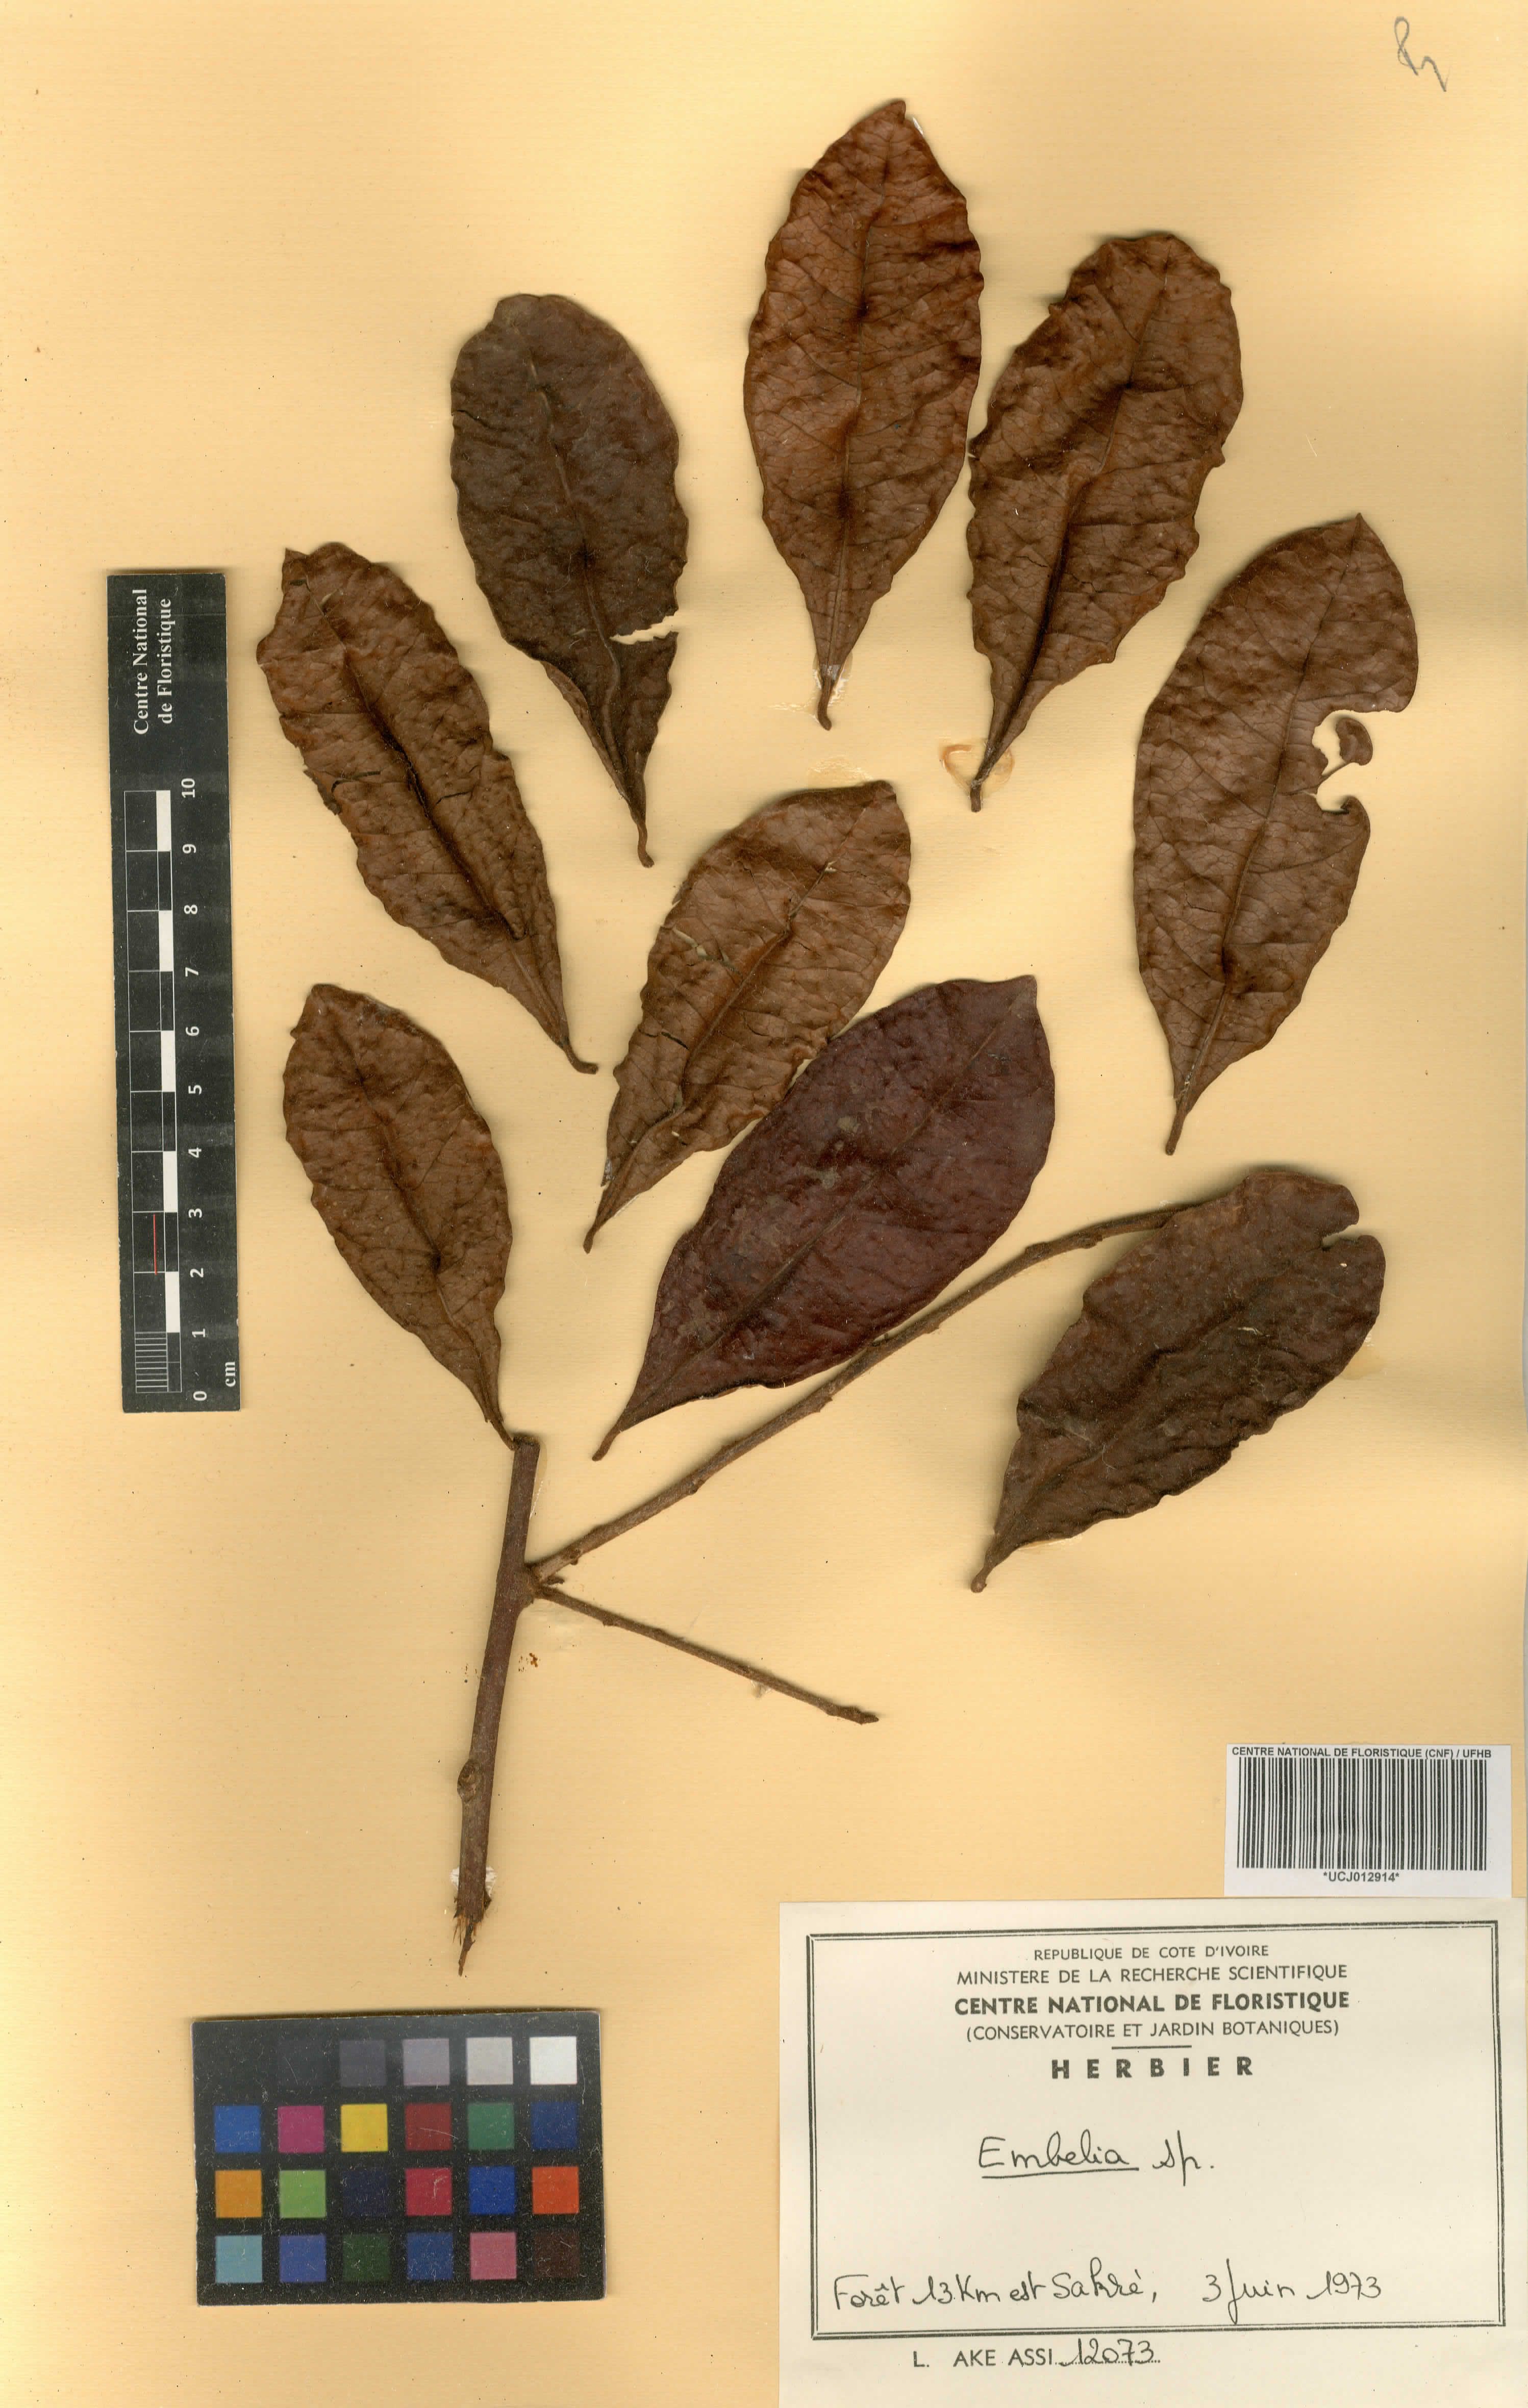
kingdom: Plantae
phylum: Tracheophyta
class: Magnoliopsida
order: Ericales
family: Primulaceae
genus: Embelia
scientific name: Embelia
